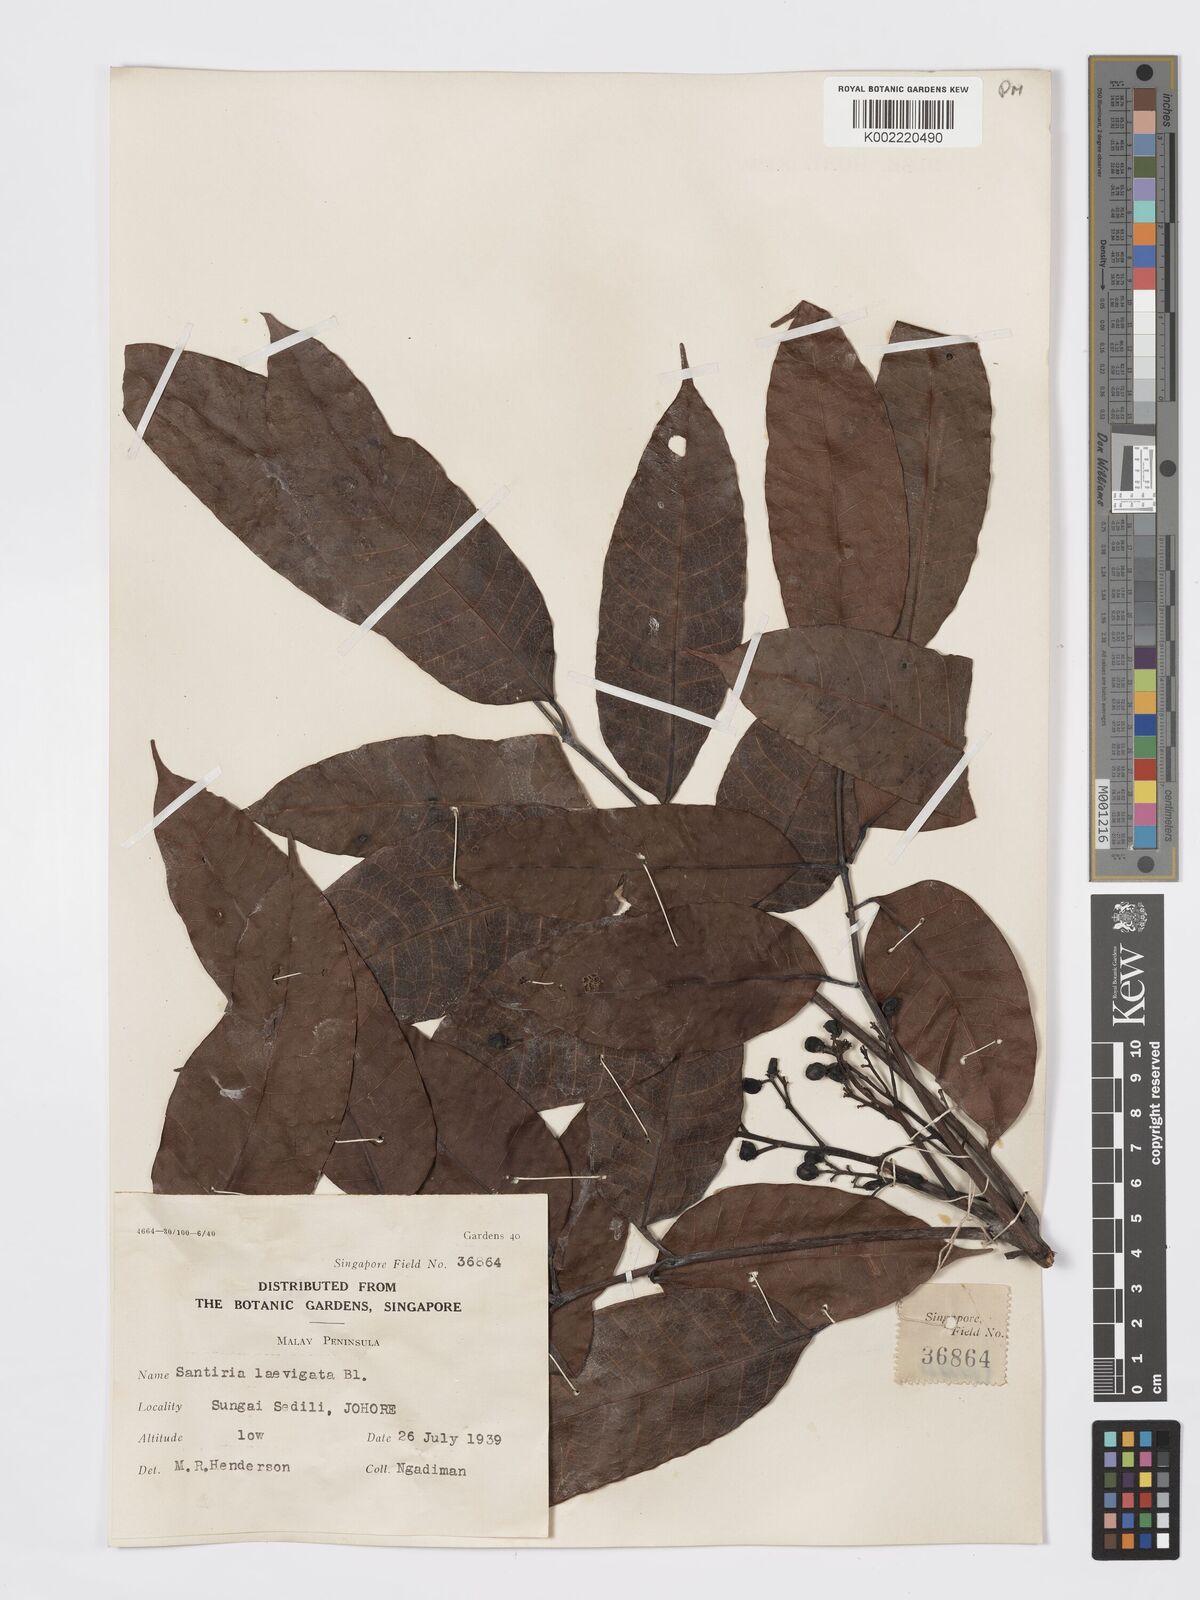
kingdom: Plantae
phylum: Tracheophyta
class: Magnoliopsida
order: Sapindales
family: Burseraceae
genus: Santiria
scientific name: Santiria laevigata
